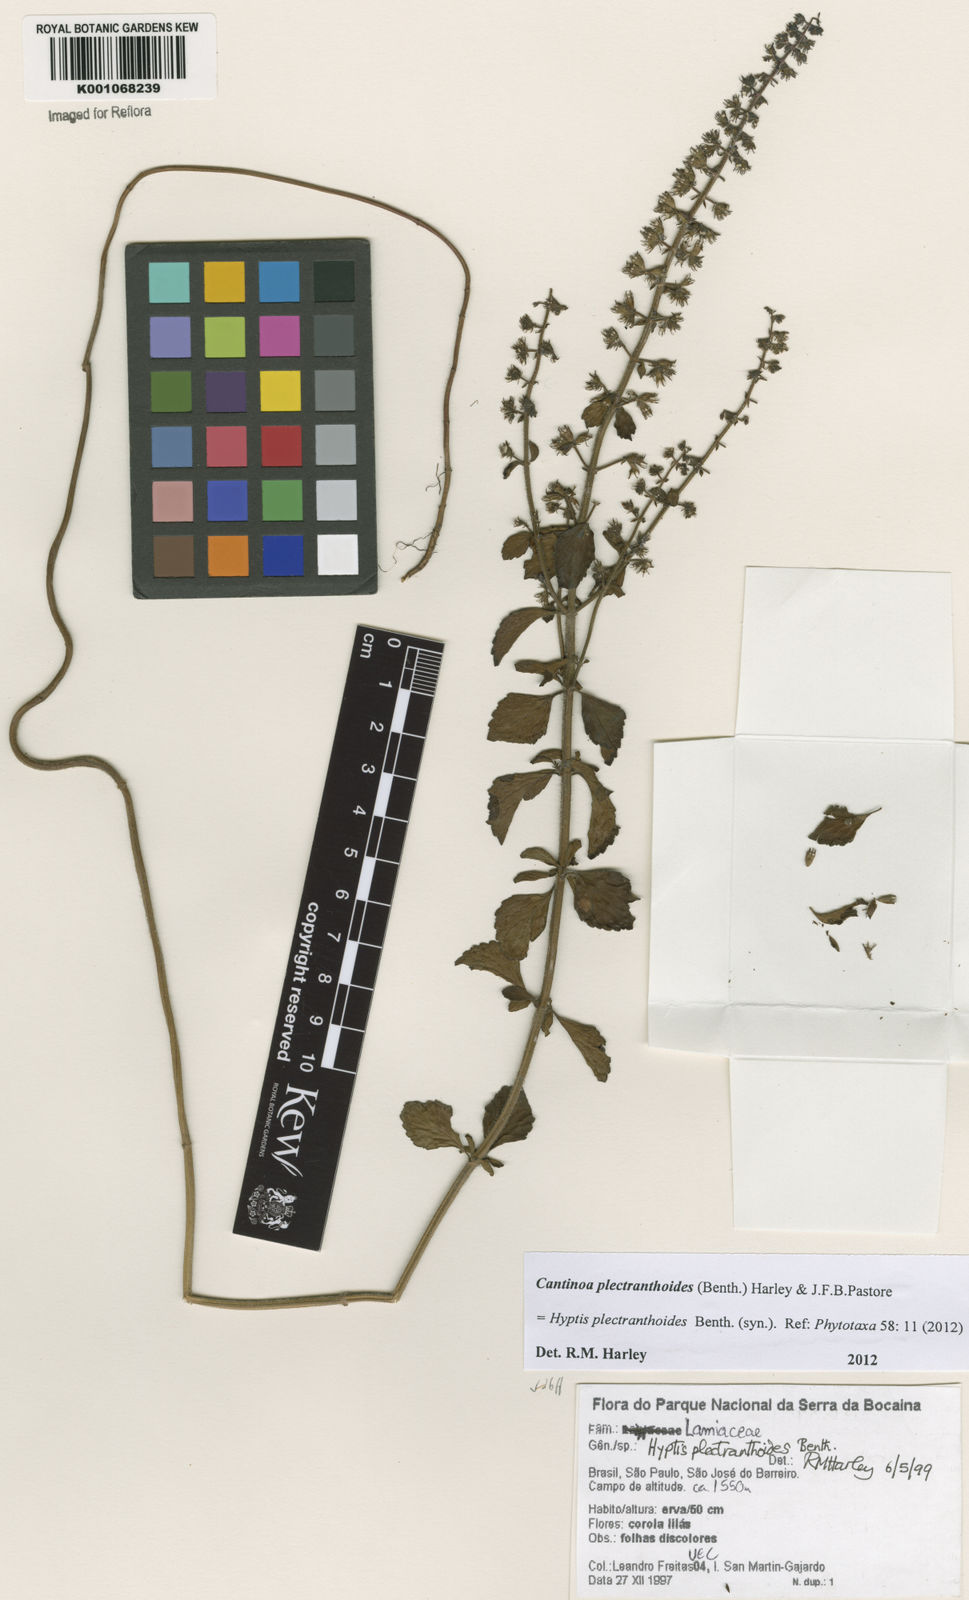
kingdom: Plantae
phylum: Tracheophyta
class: Magnoliopsida
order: Lamiales
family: Lamiaceae
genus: Cantinoa
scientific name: Cantinoa plectranthoides
